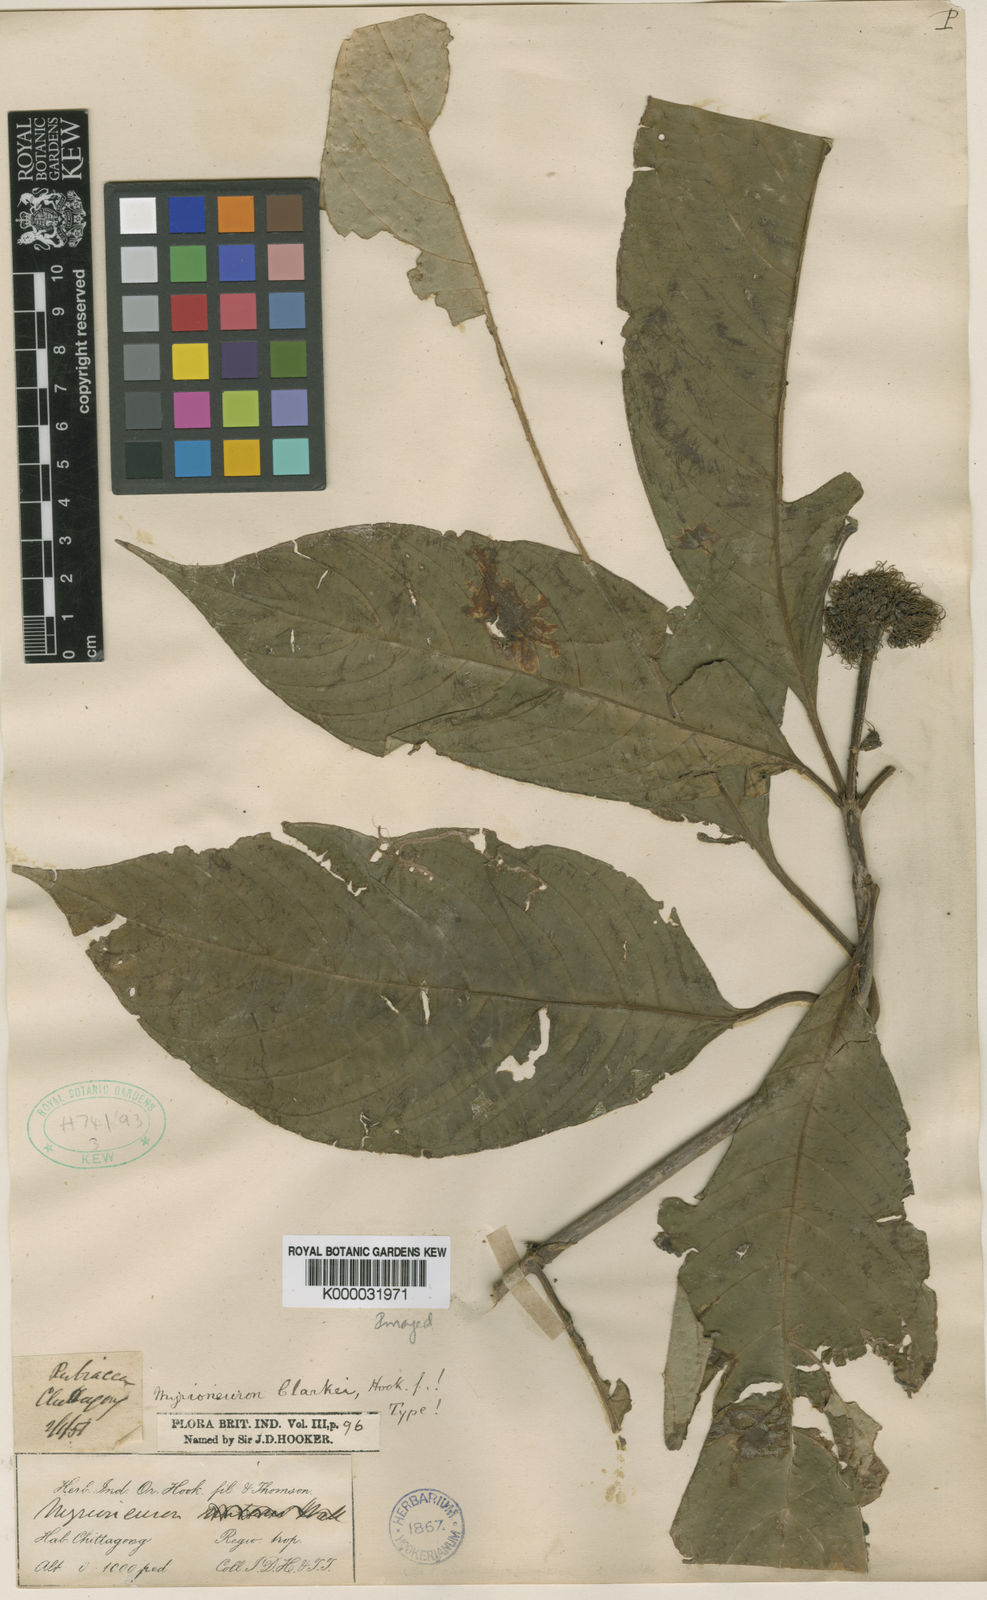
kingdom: Plantae
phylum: Tracheophyta
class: Magnoliopsida
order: Gentianales
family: Rubiaceae
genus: Mycetia
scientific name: Mycetia clarkei
